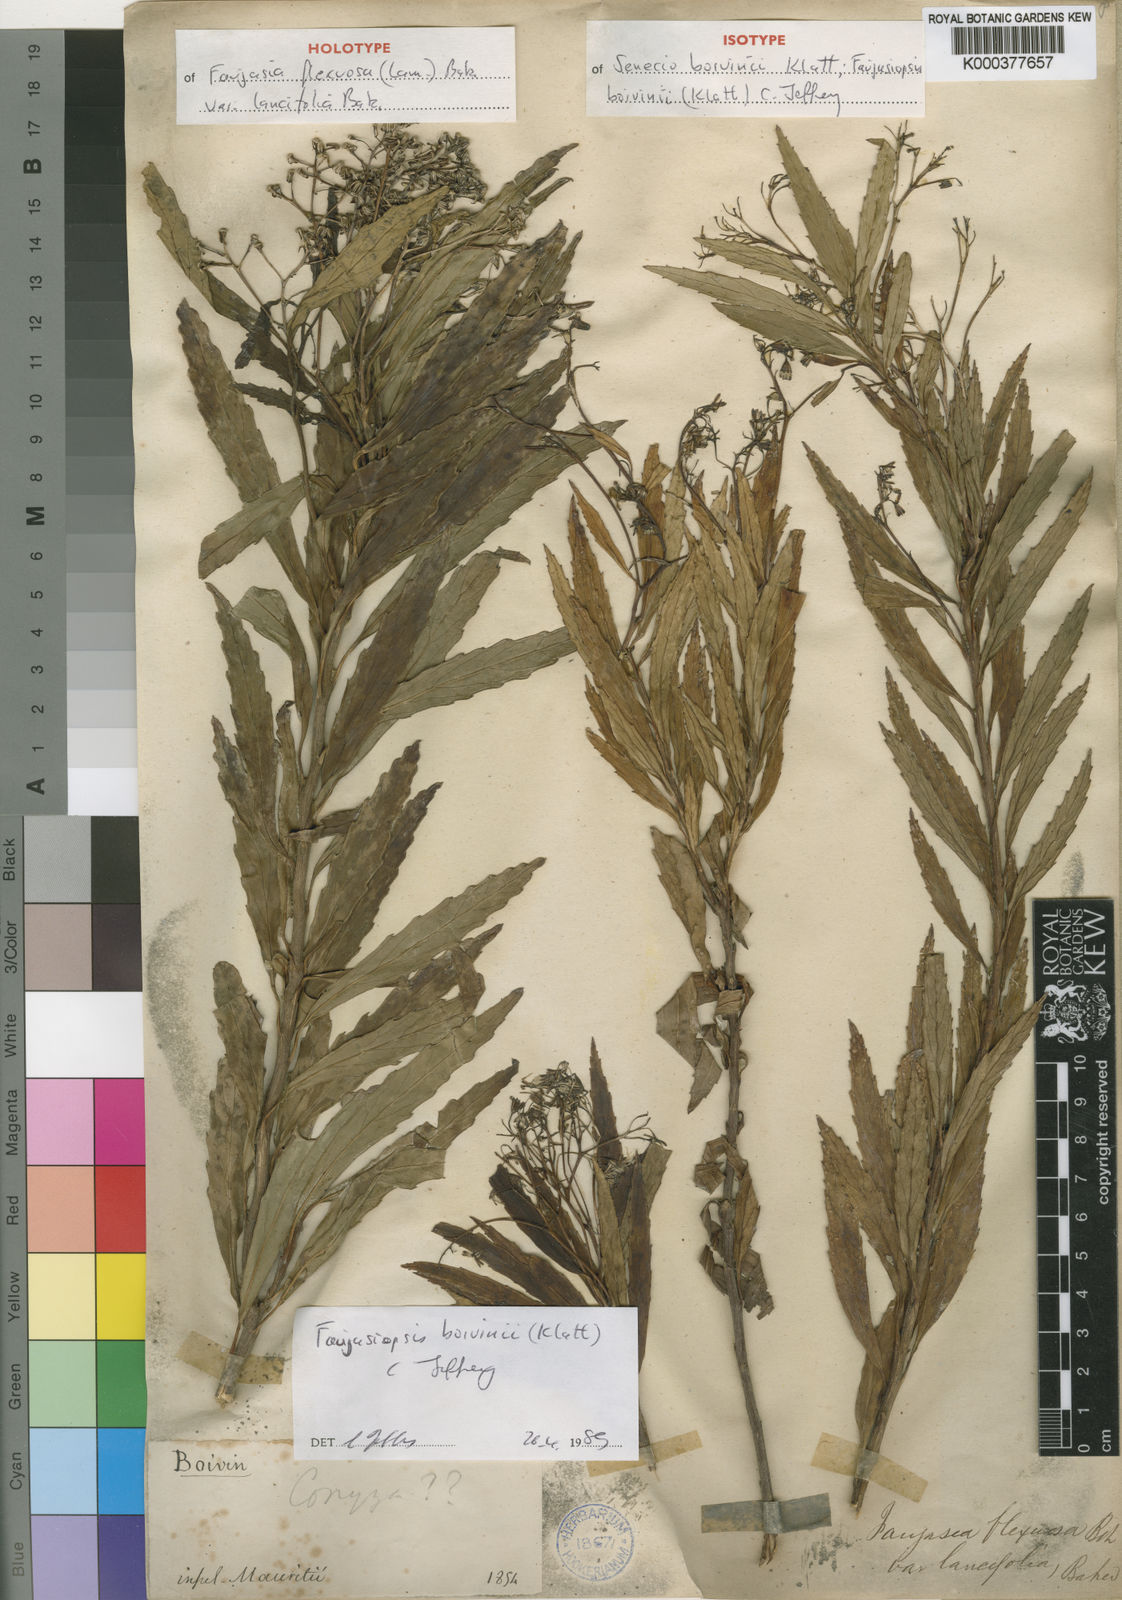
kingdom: Plantae
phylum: Tracheophyta
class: Magnoliopsida
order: Asterales
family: Asteraceae
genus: Faujasiopsis
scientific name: Faujasiopsis boivinii
